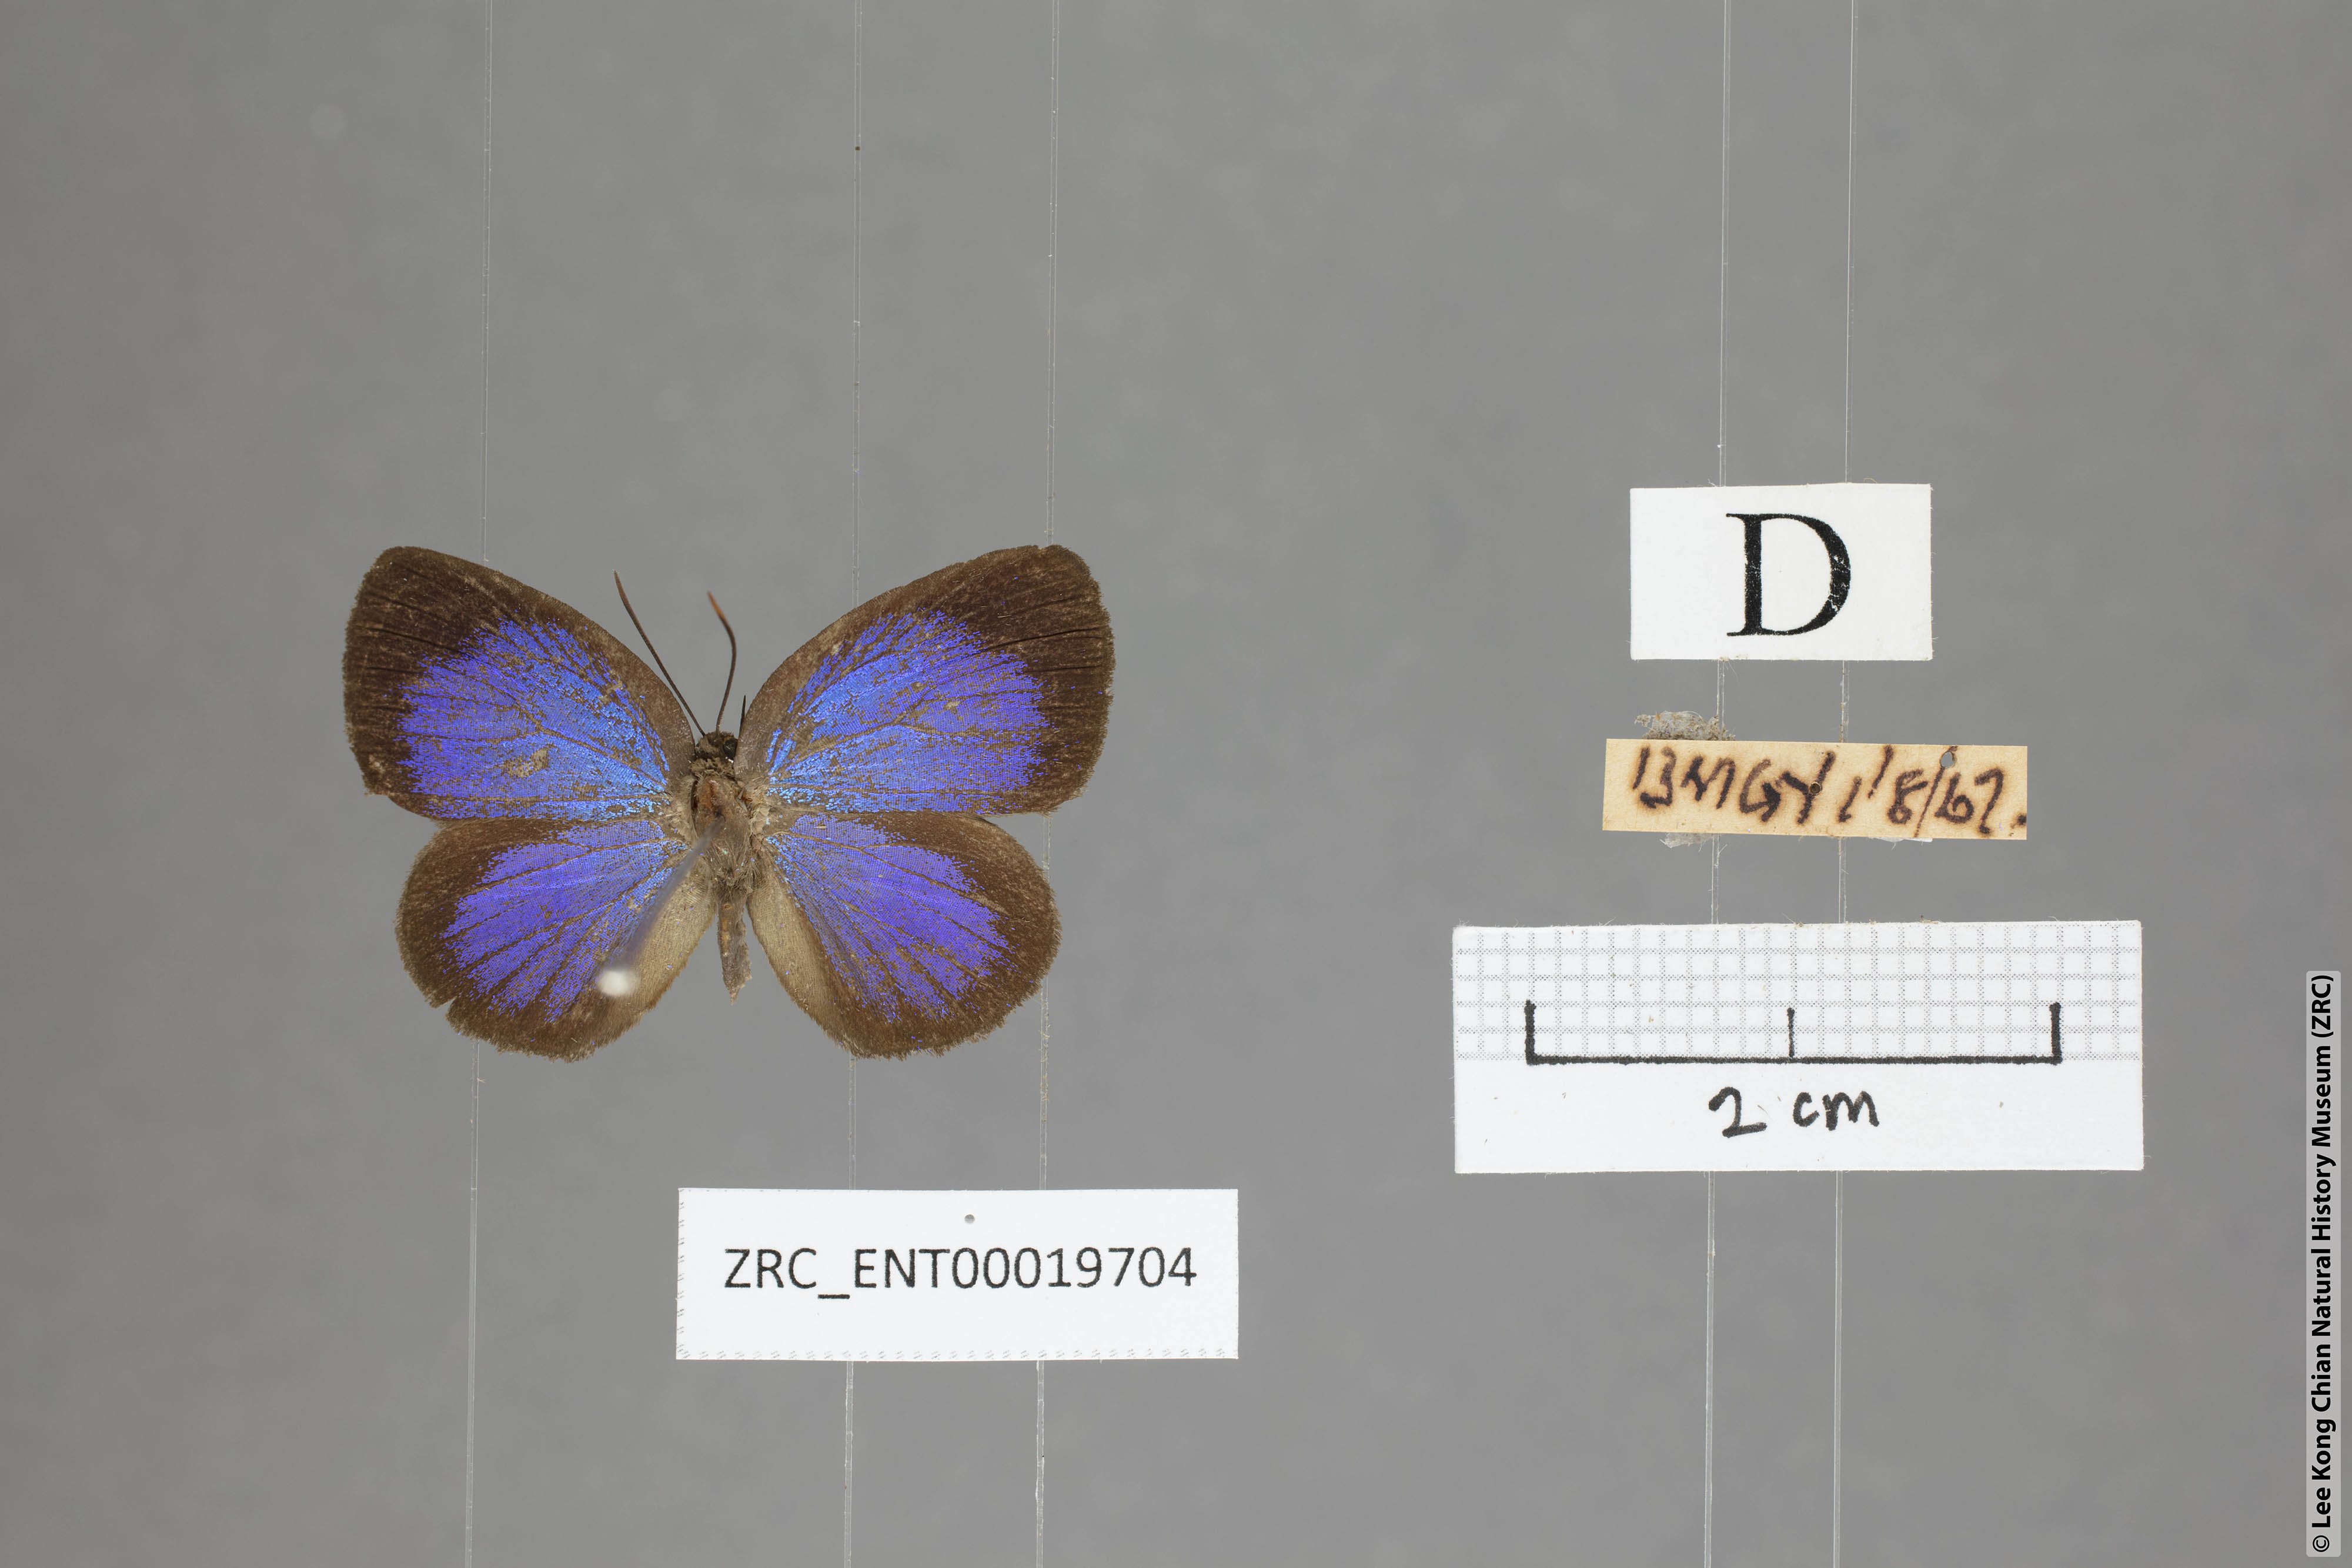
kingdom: Animalia
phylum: Arthropoda
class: Insecta
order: Lepidoptera
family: Lycaenidae
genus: Arhopala
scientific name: Arhopala muta
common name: Mutal oakblue
